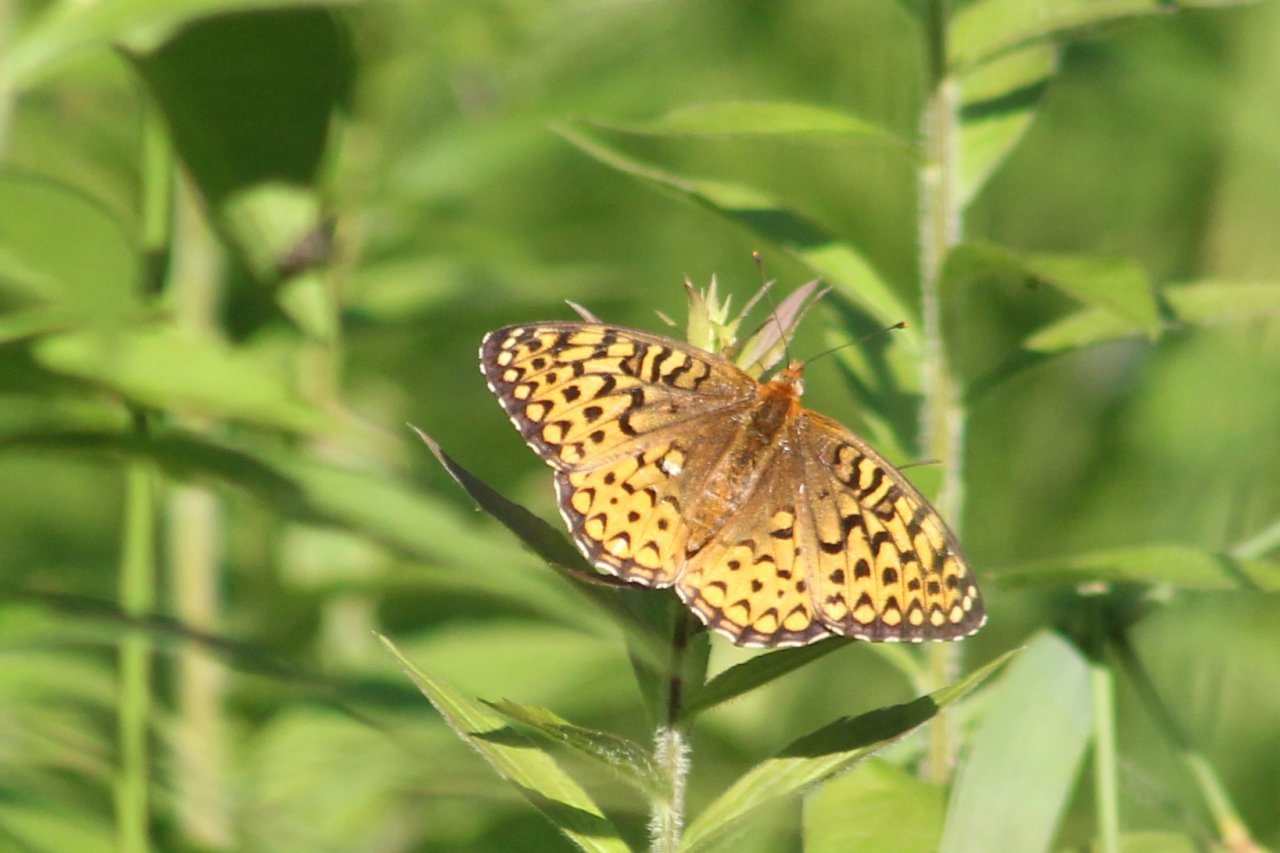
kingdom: Animalia
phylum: Arthropoda
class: Insecta
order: Lepidoptera
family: Nymphalidae
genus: Speyeria
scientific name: Speyeria atlantis
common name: Atlantis Fritillary
